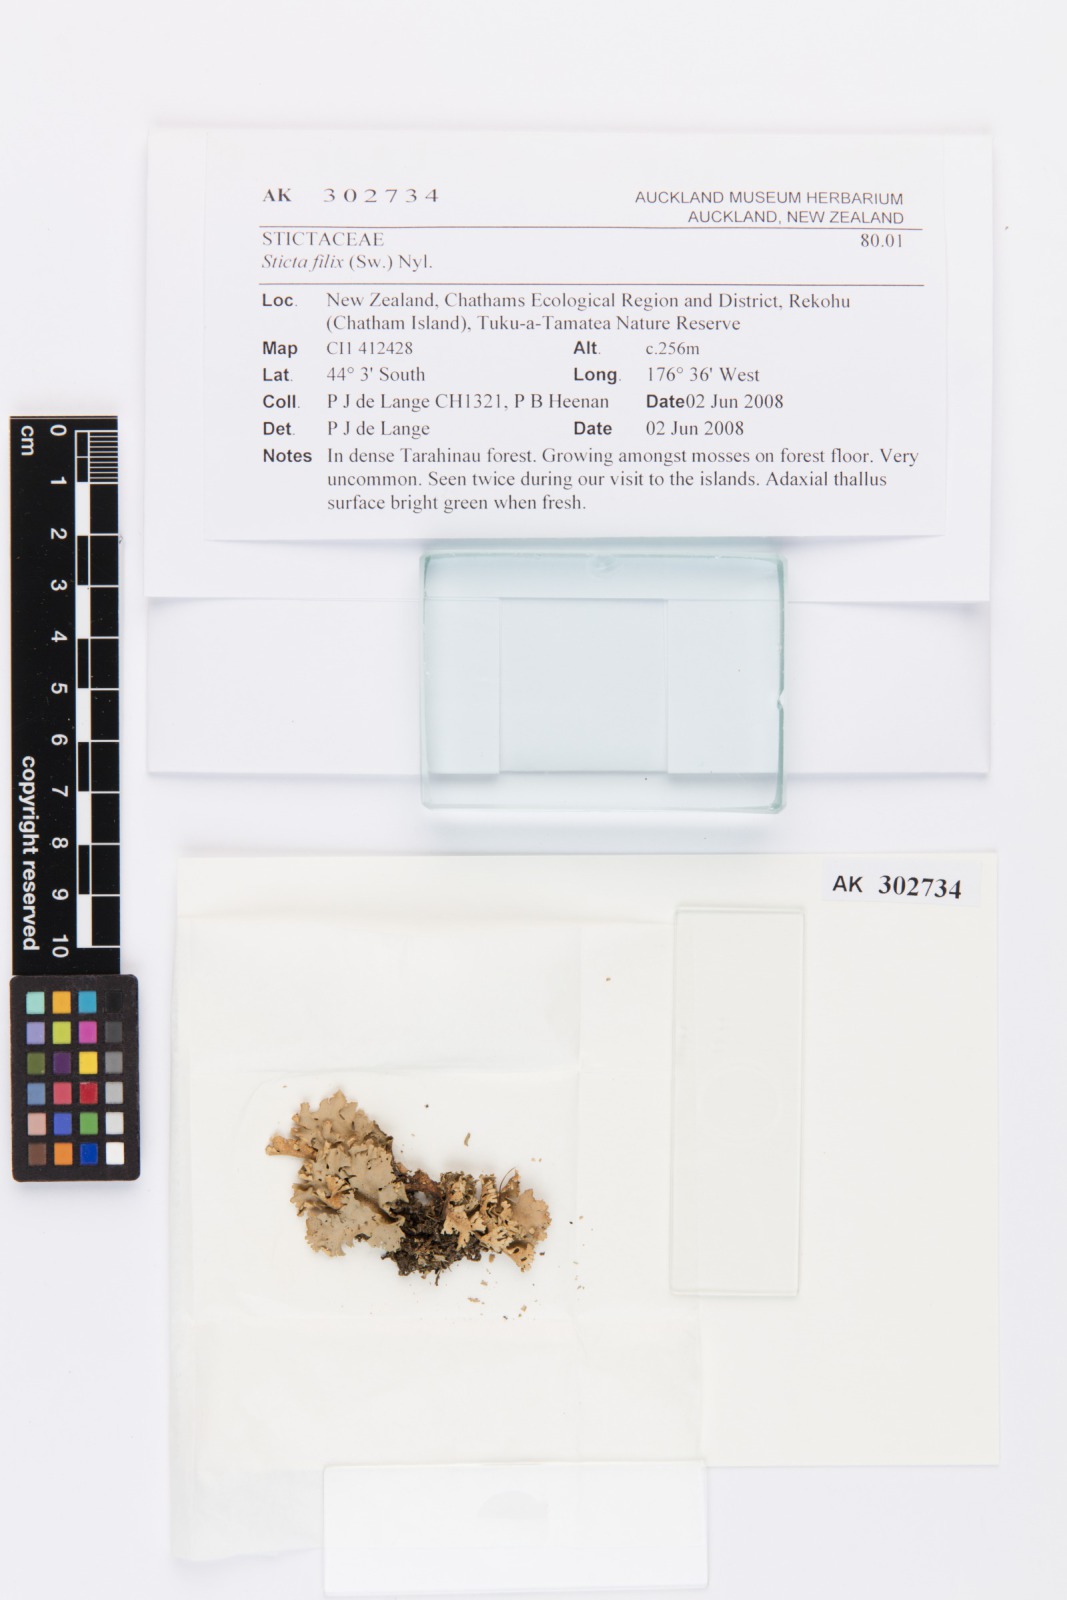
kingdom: Fungi
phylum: Ascomycota
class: Lecanoromycetes
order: Peltigerales
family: Lobariaceae
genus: Sticta
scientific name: Sticta filix
